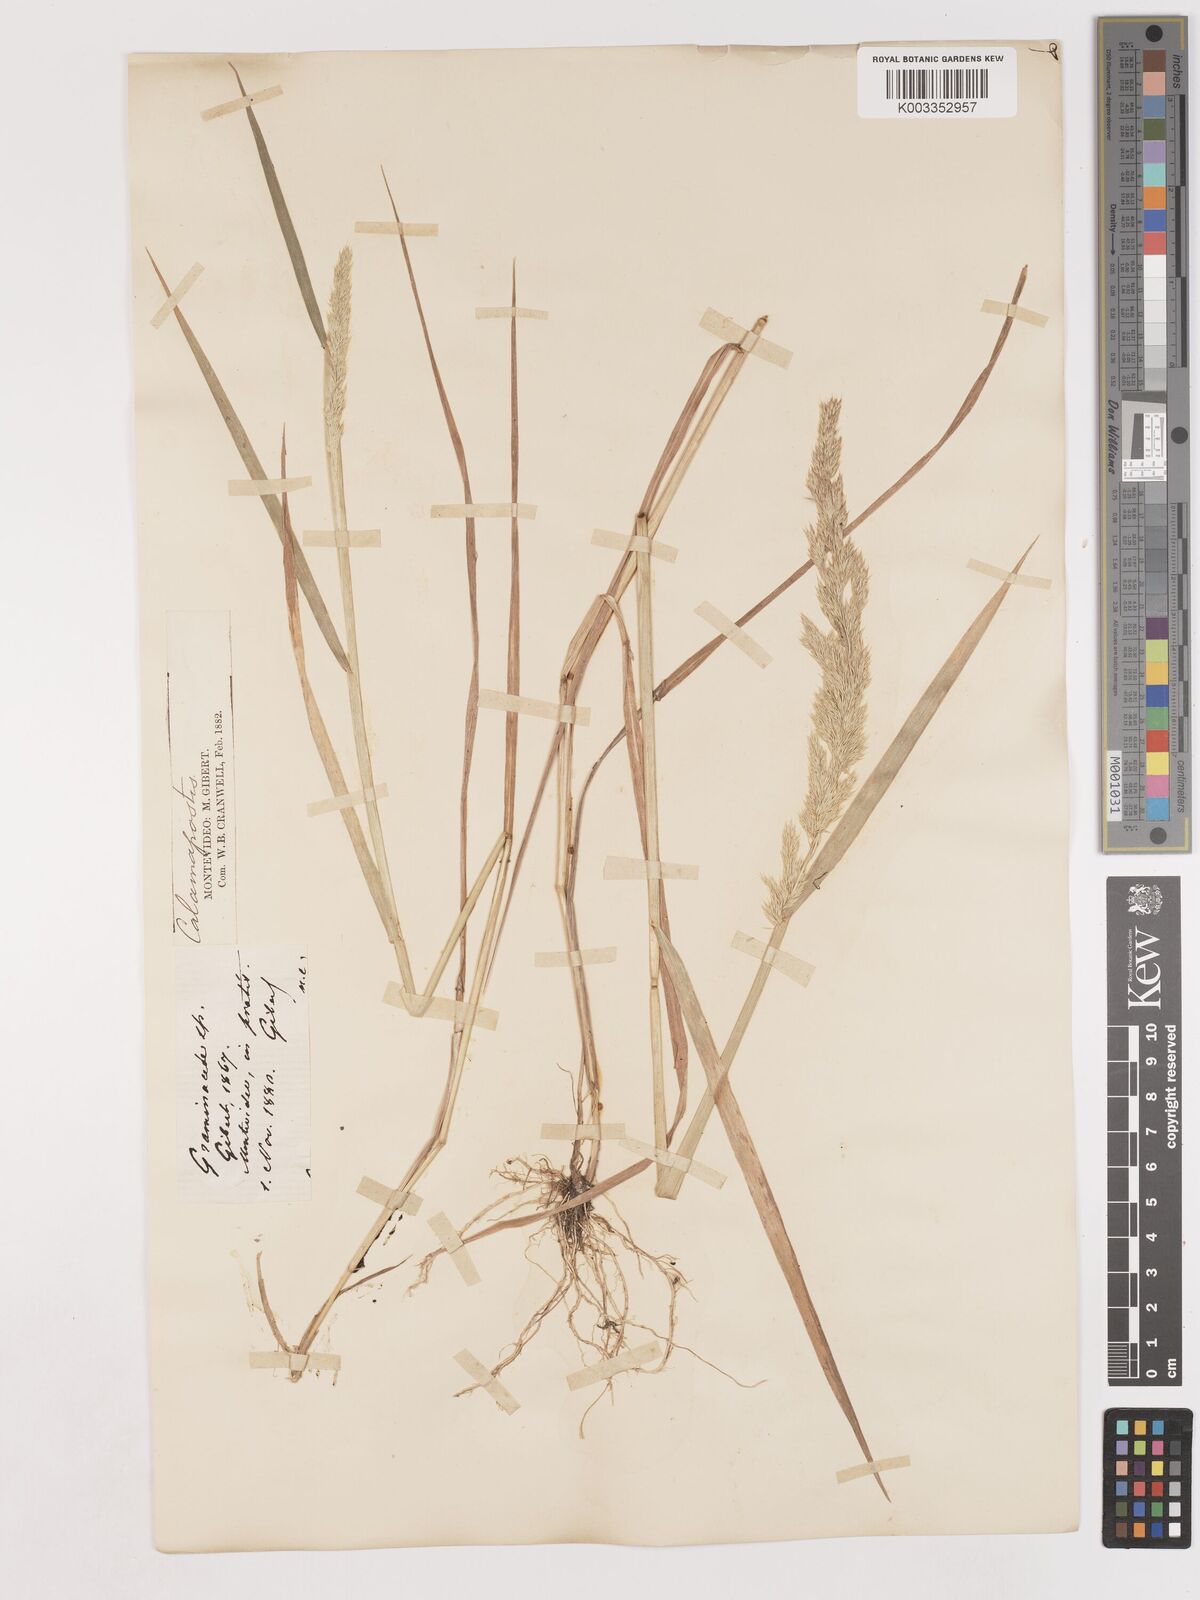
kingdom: Plantae
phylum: Tracheophyta
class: Liliopsida
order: Poales
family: Poaceae
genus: Cinnagrostis
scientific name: Cinnagrostis viridiflavescens
